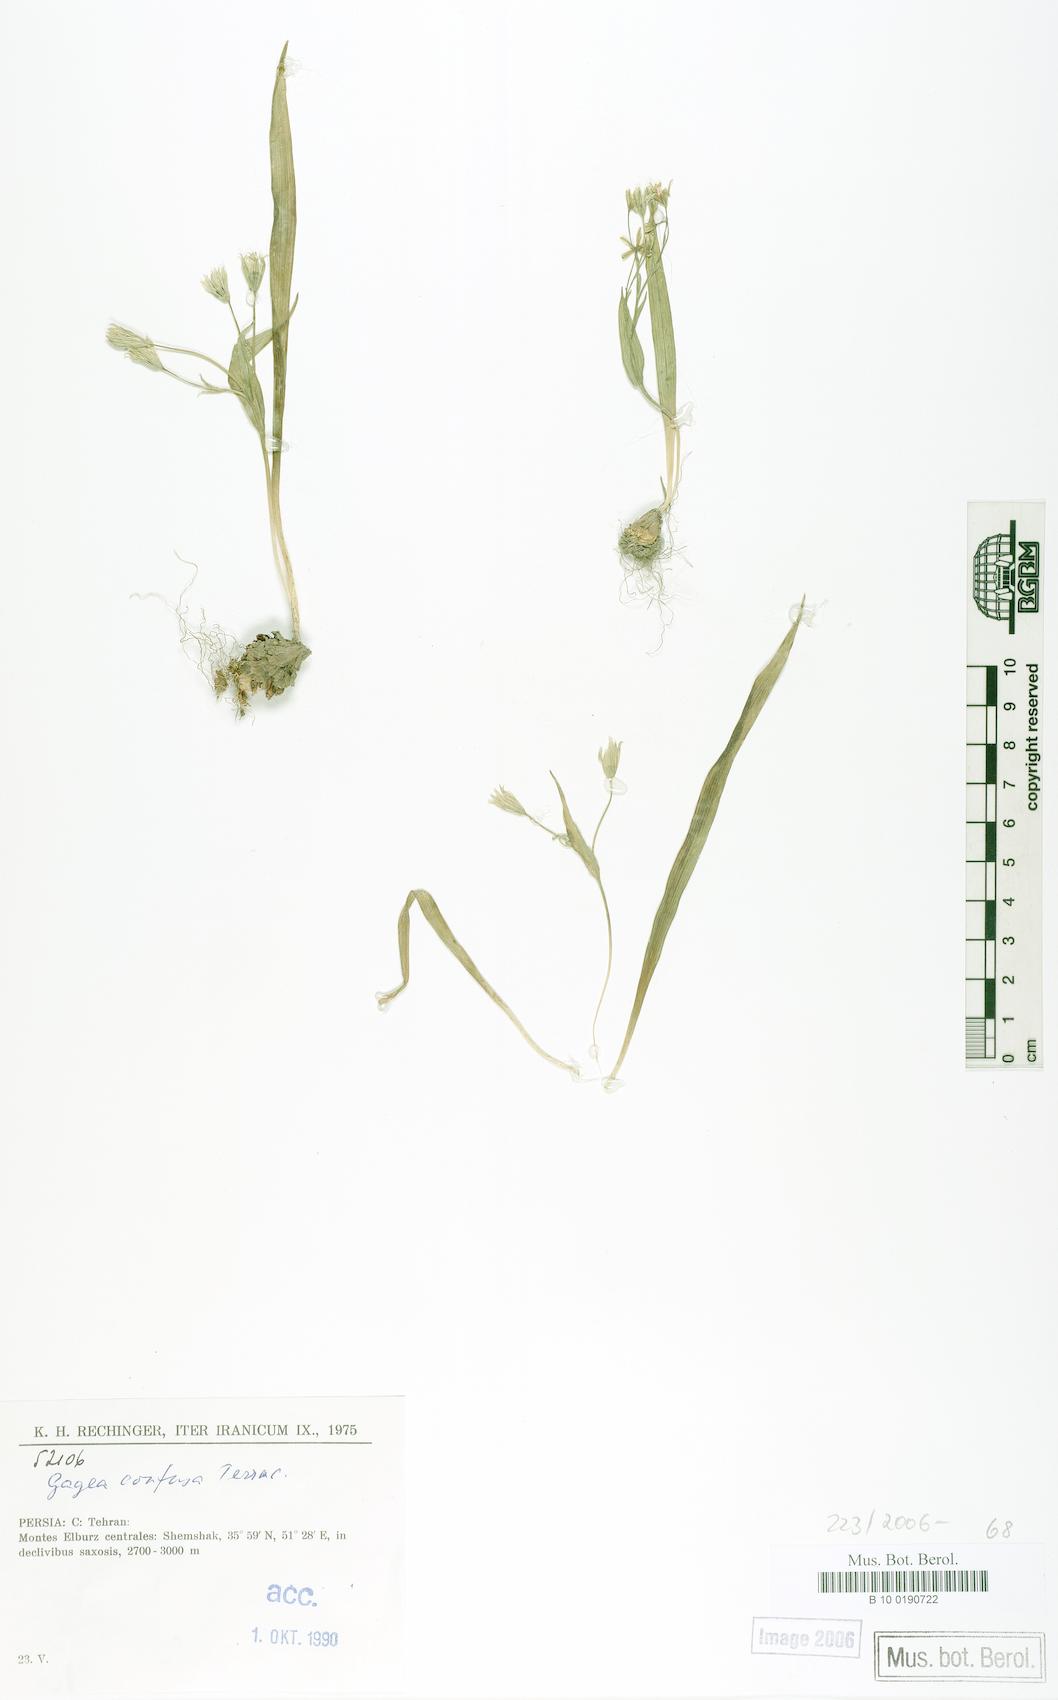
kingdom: Plantae
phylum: Tracheophyta
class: Liliopsida
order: Liliales
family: Liliaceae
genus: Gagea
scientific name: Gagea confusa
